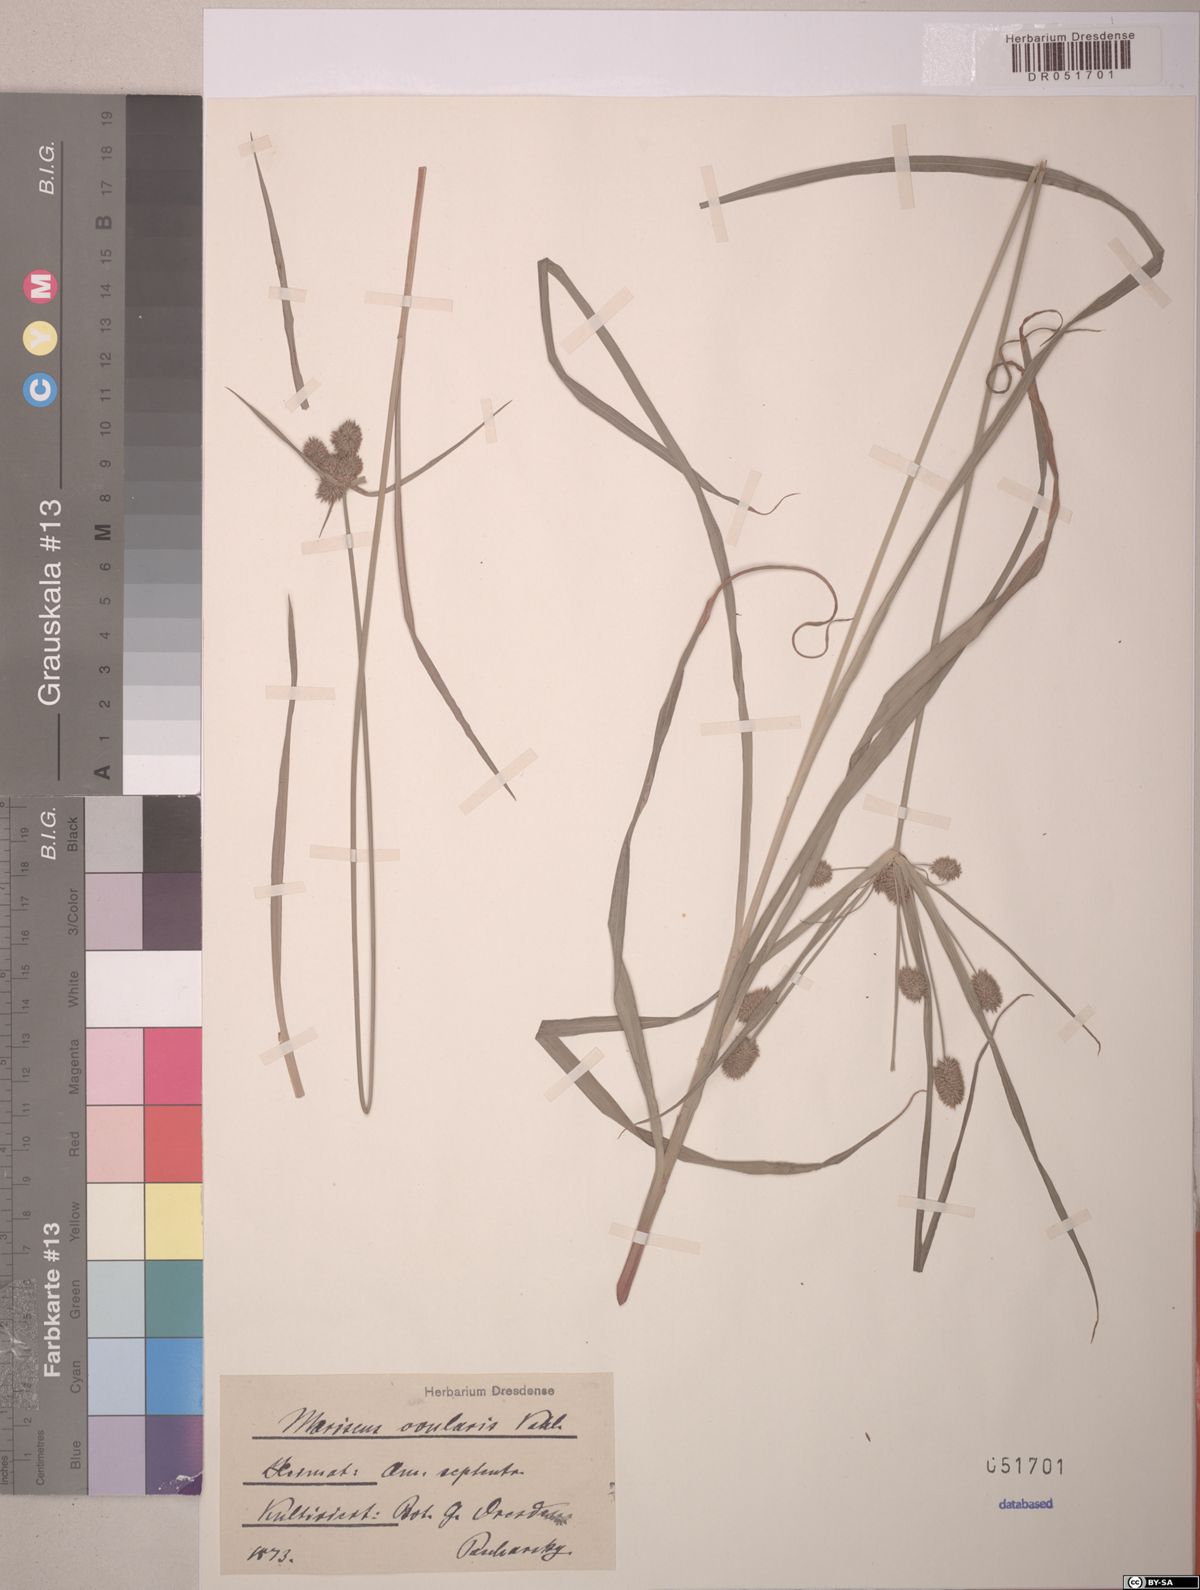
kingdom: Plantae
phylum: Tracheophyta
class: Liliopsida
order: Poales
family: Cyperaceae
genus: Cyperus
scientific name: Cyperus echinatus
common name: Teasel sedge
